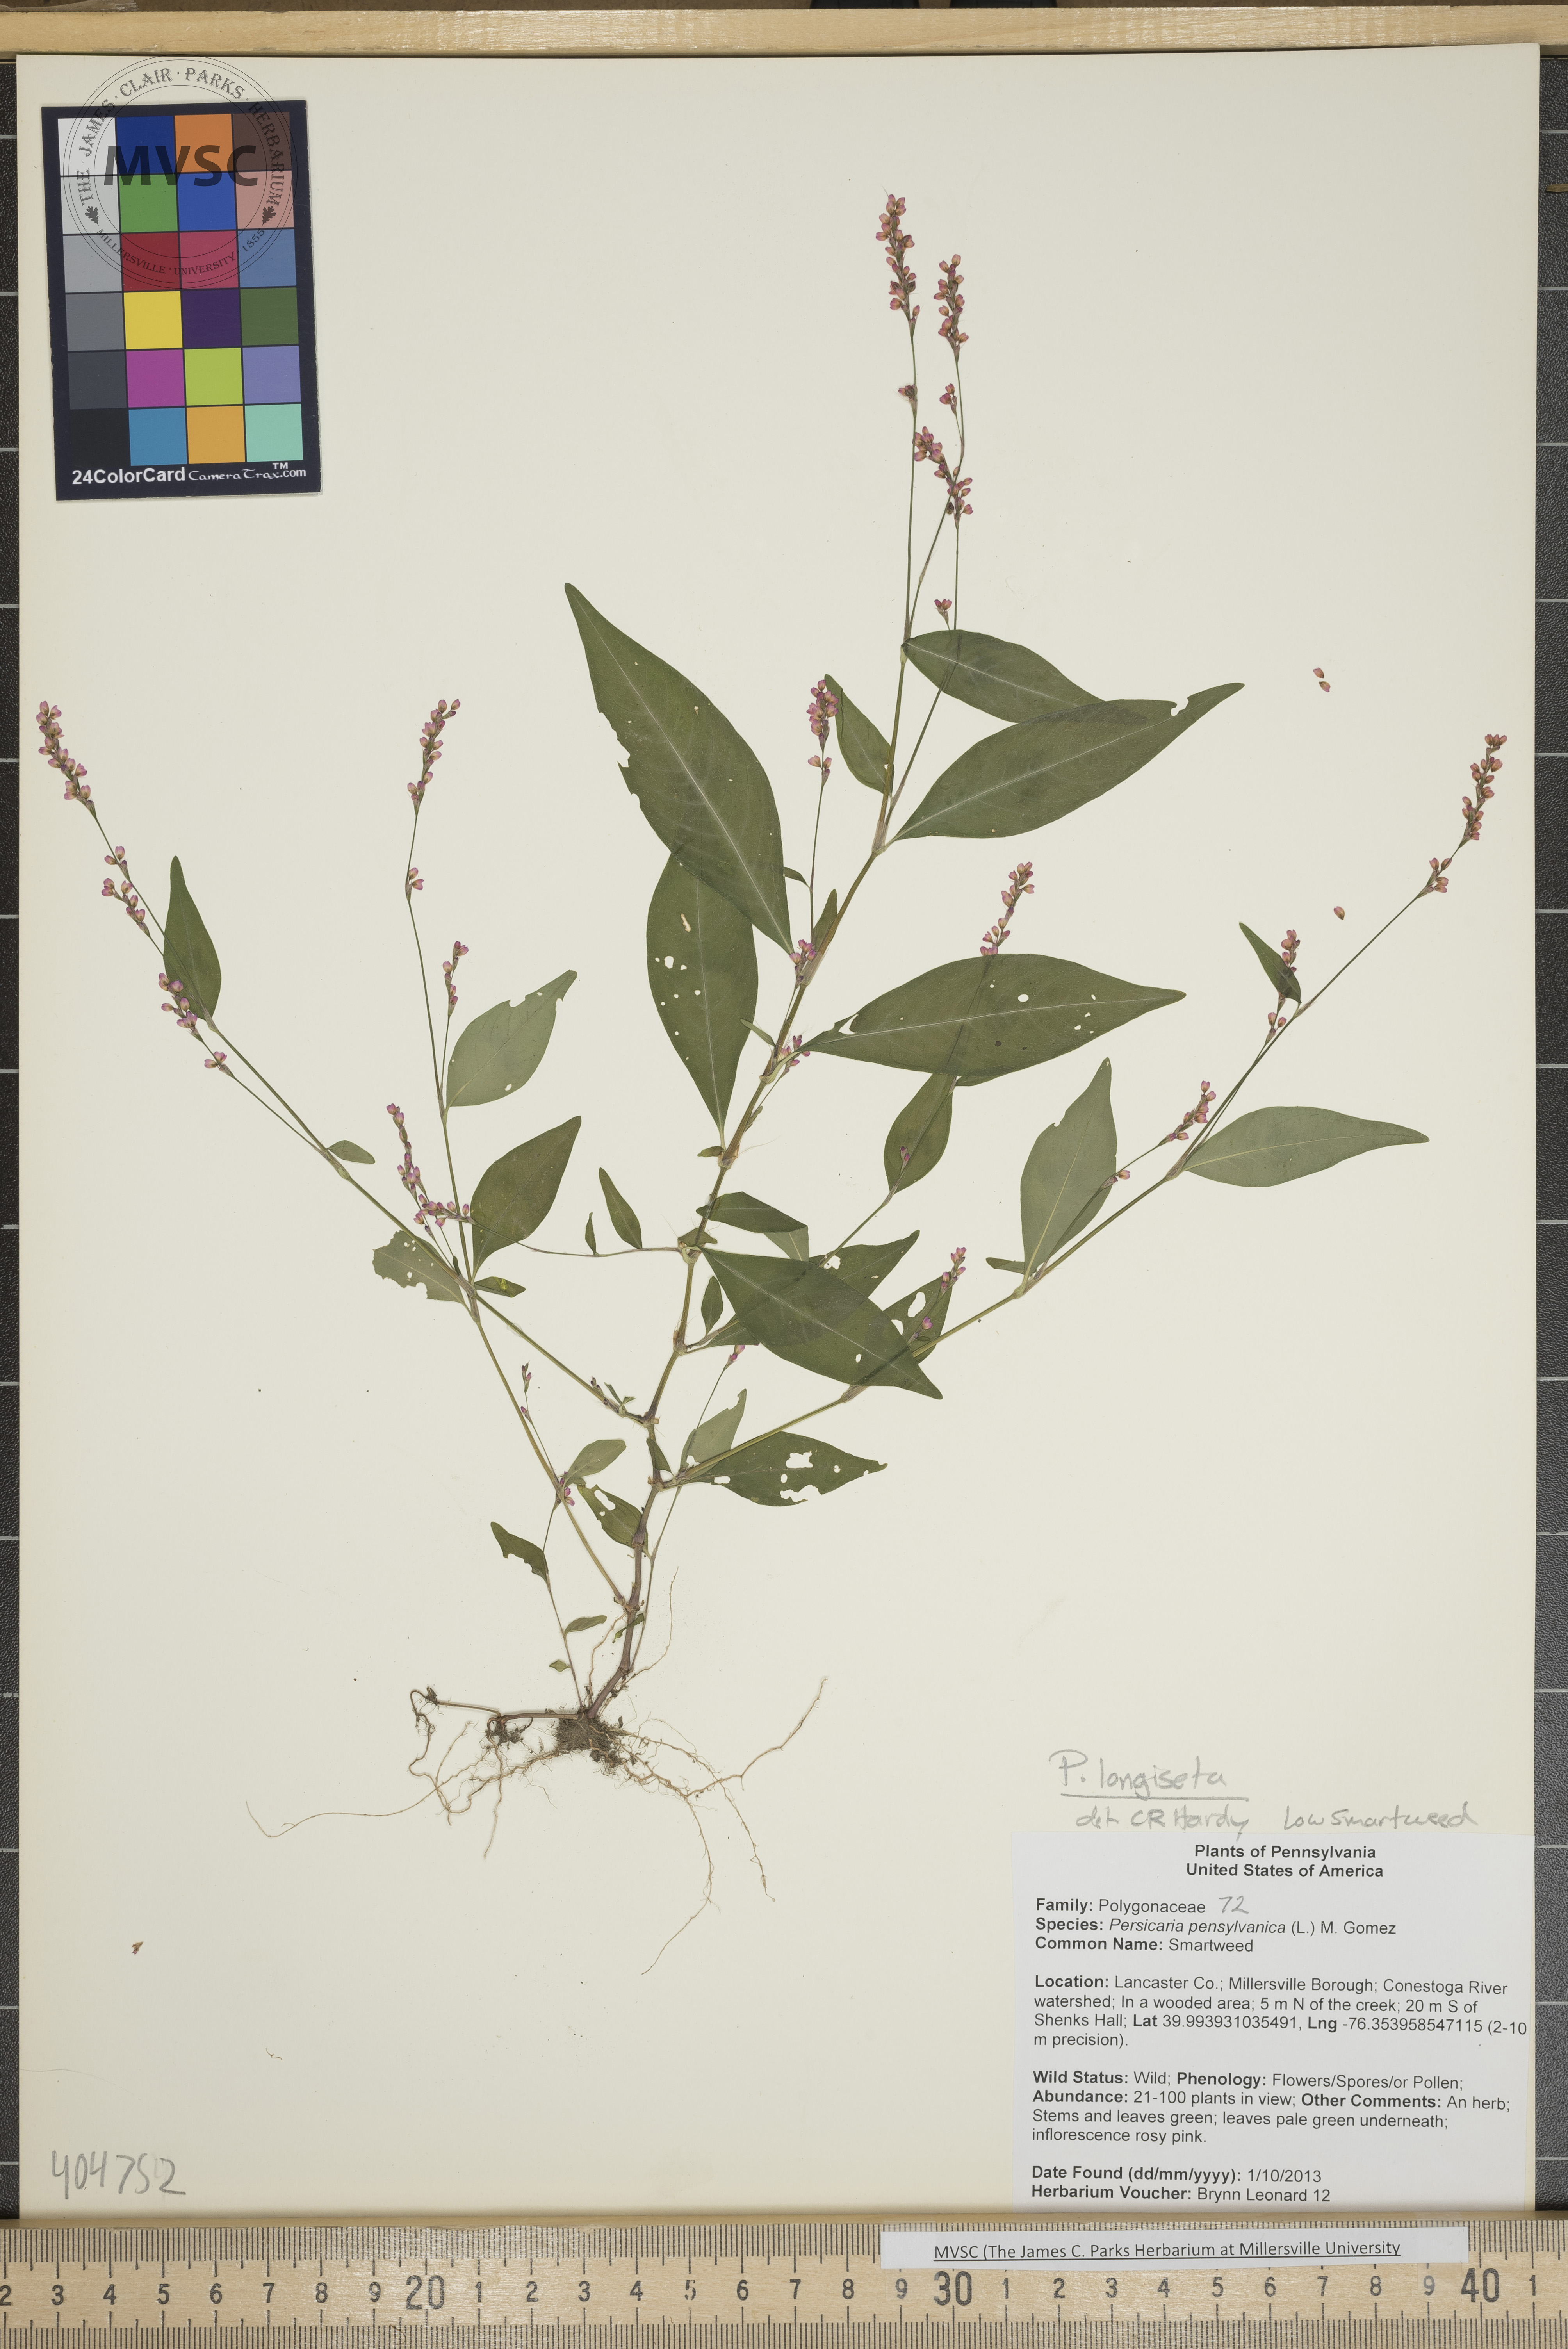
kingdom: Plantae
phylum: Tracheophyta
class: Magnoliopsida
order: Caryophyllales
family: Polygonaceae
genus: Persicaria
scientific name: Persicaria longiseta
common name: Low Smartweed
